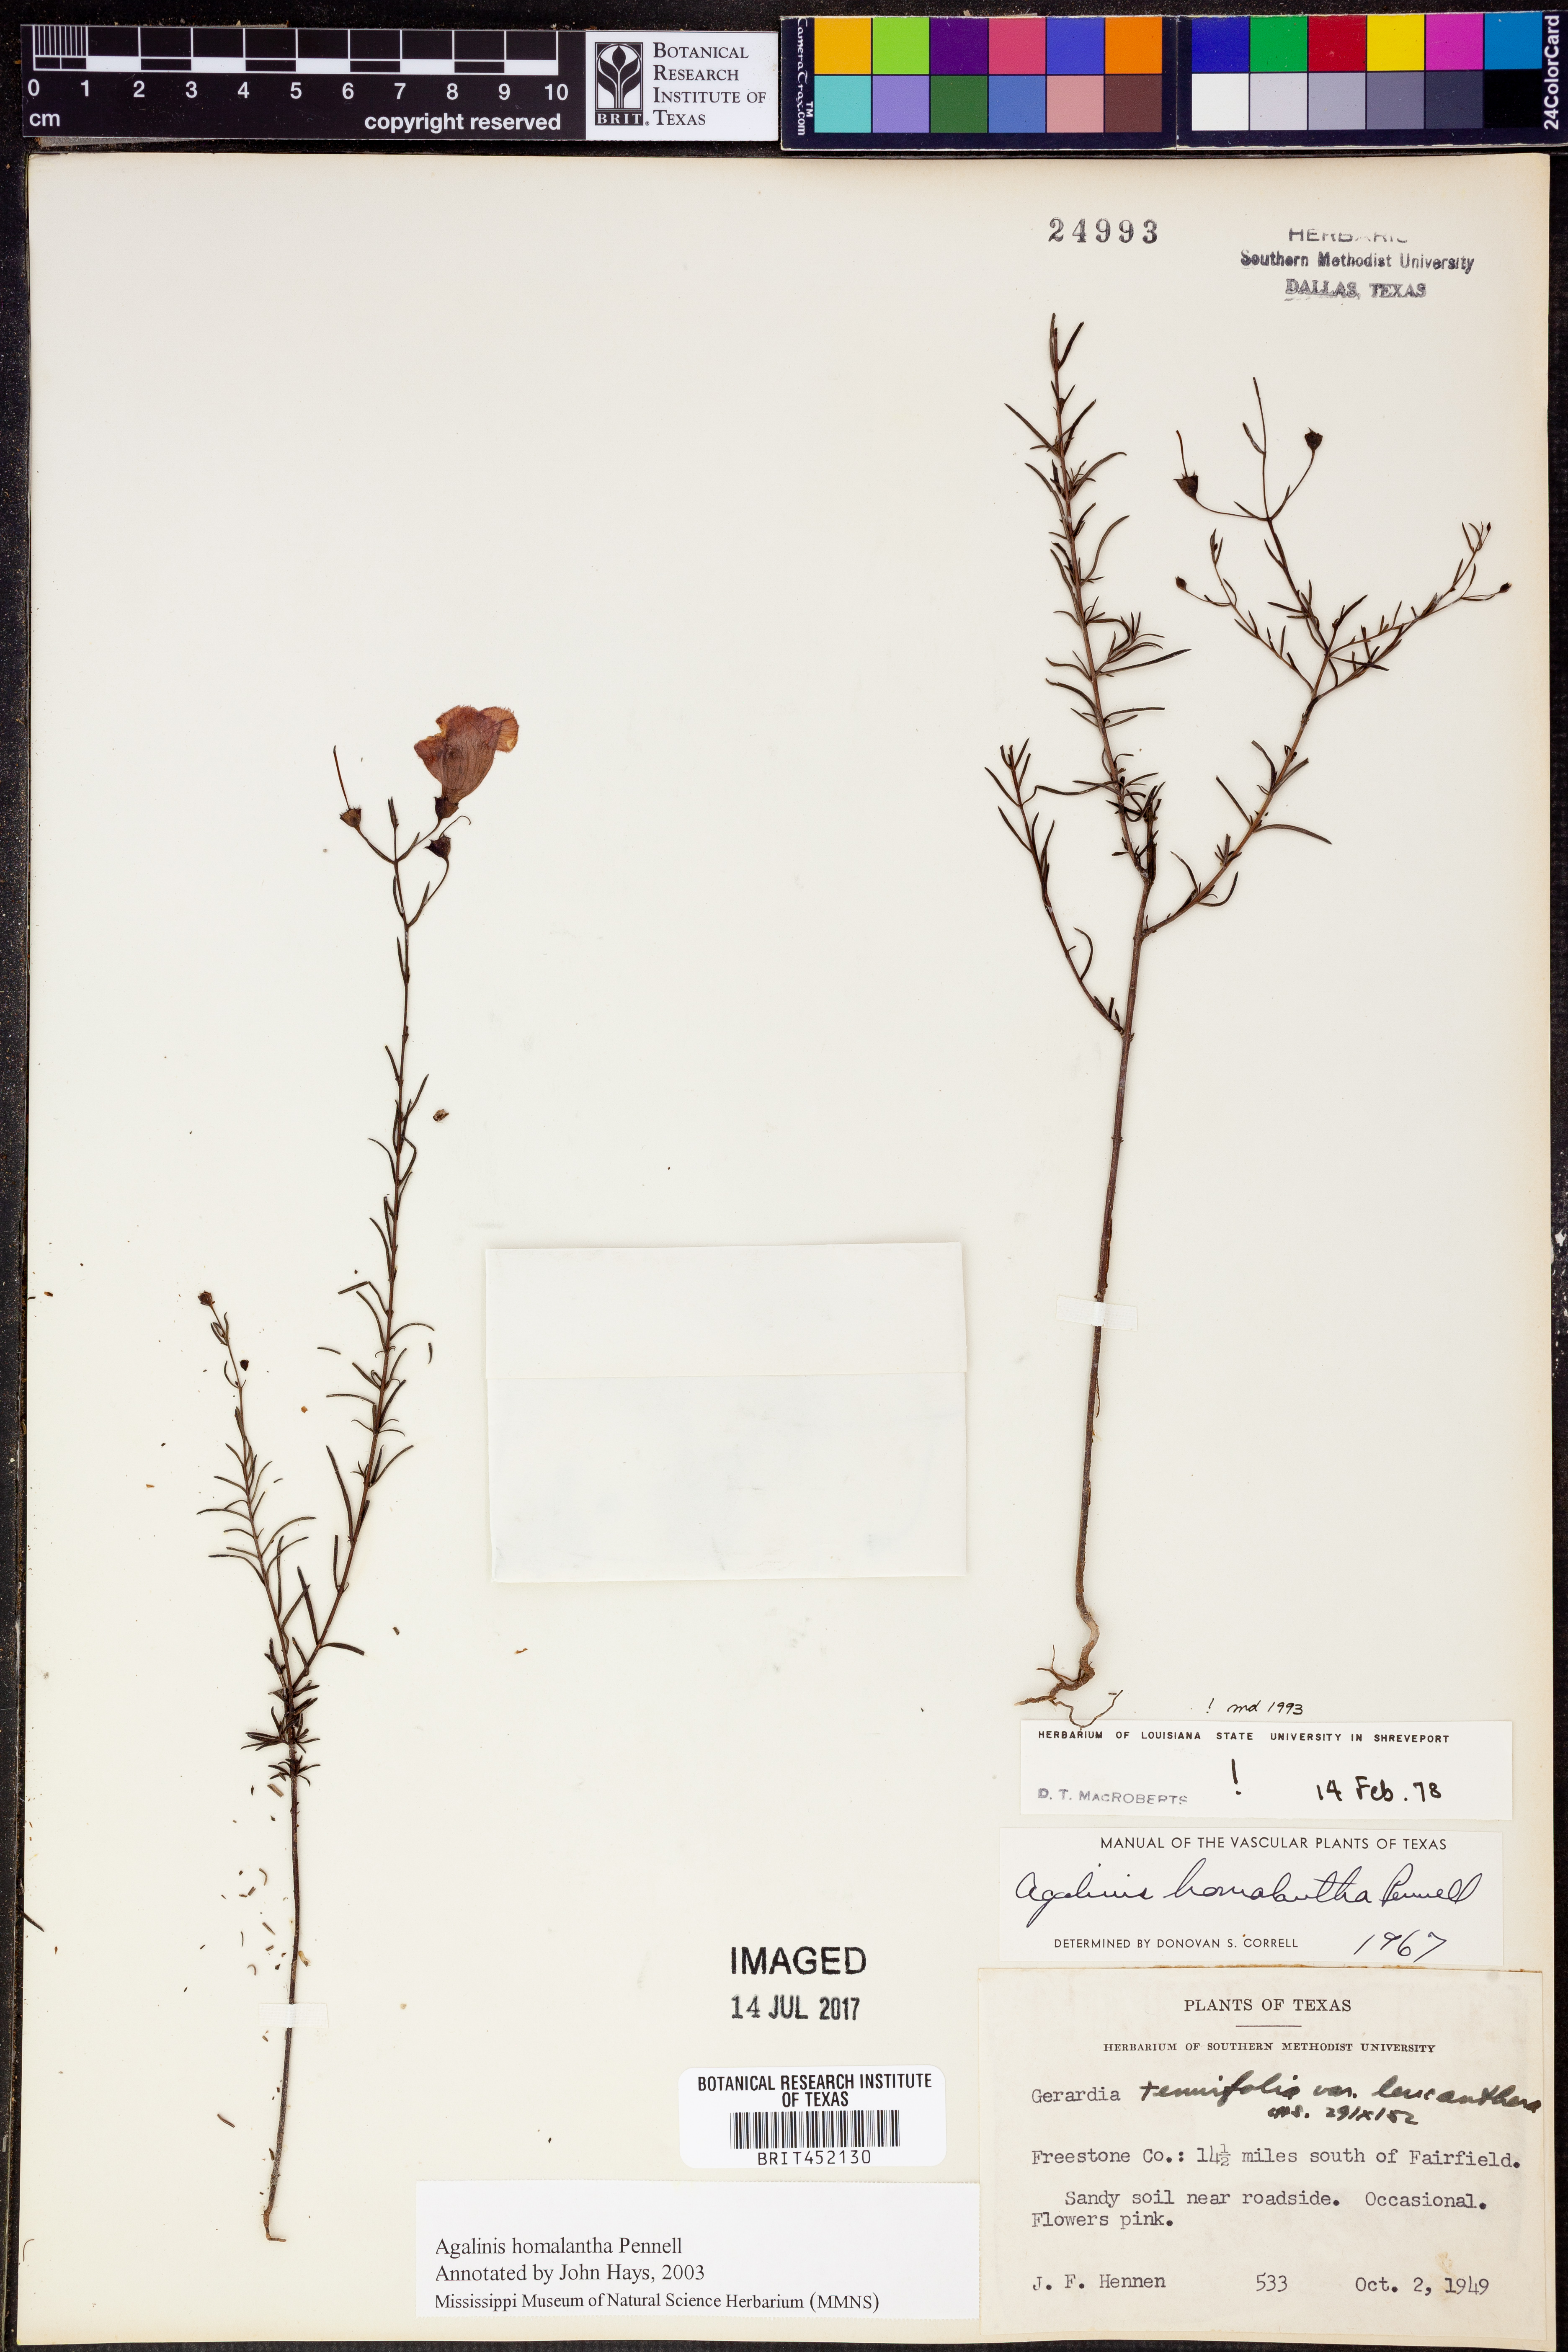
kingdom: Plantae
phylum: Tracheophyta
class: Magnoliopsida
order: Lamiales
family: Orobanchaceae
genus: Agalinis
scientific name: Agalinis homalantha
